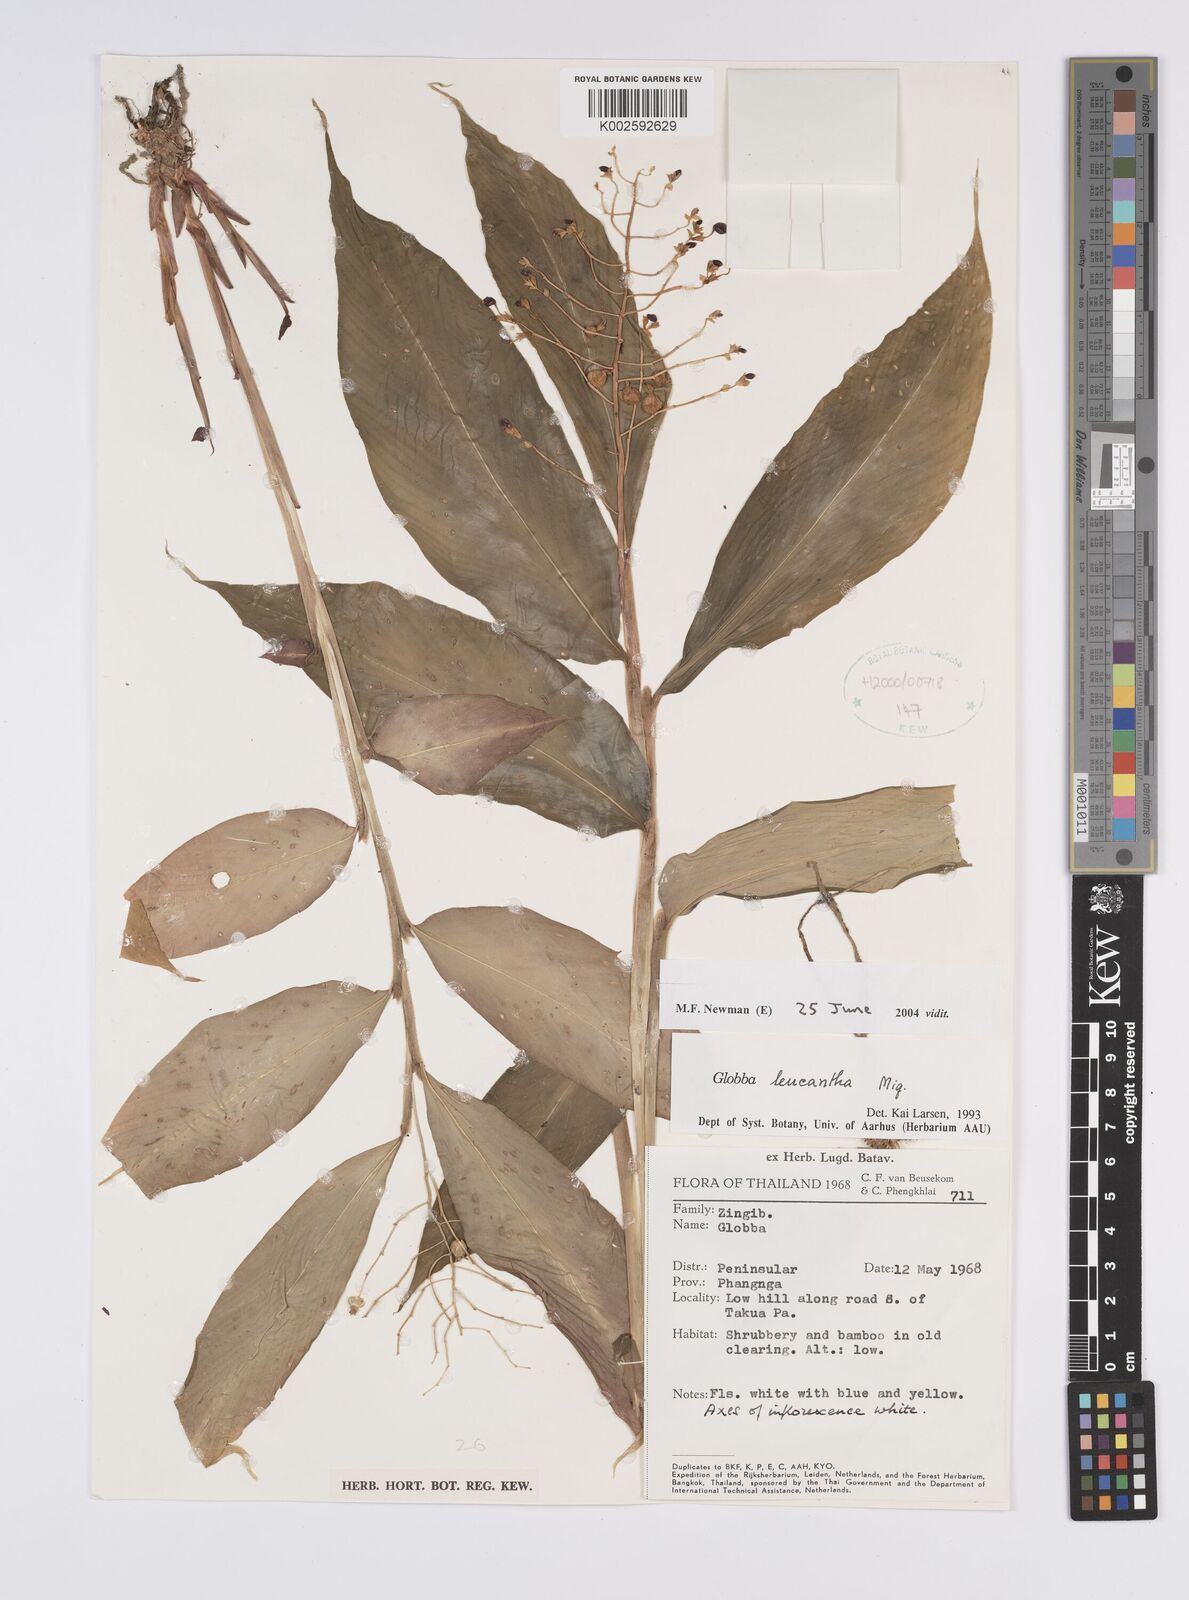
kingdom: Plantae
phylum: Tracheophyta
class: Liliopsida
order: Zingiberales
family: Zingiberaceae
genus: Globba
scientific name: Globba leucantha
